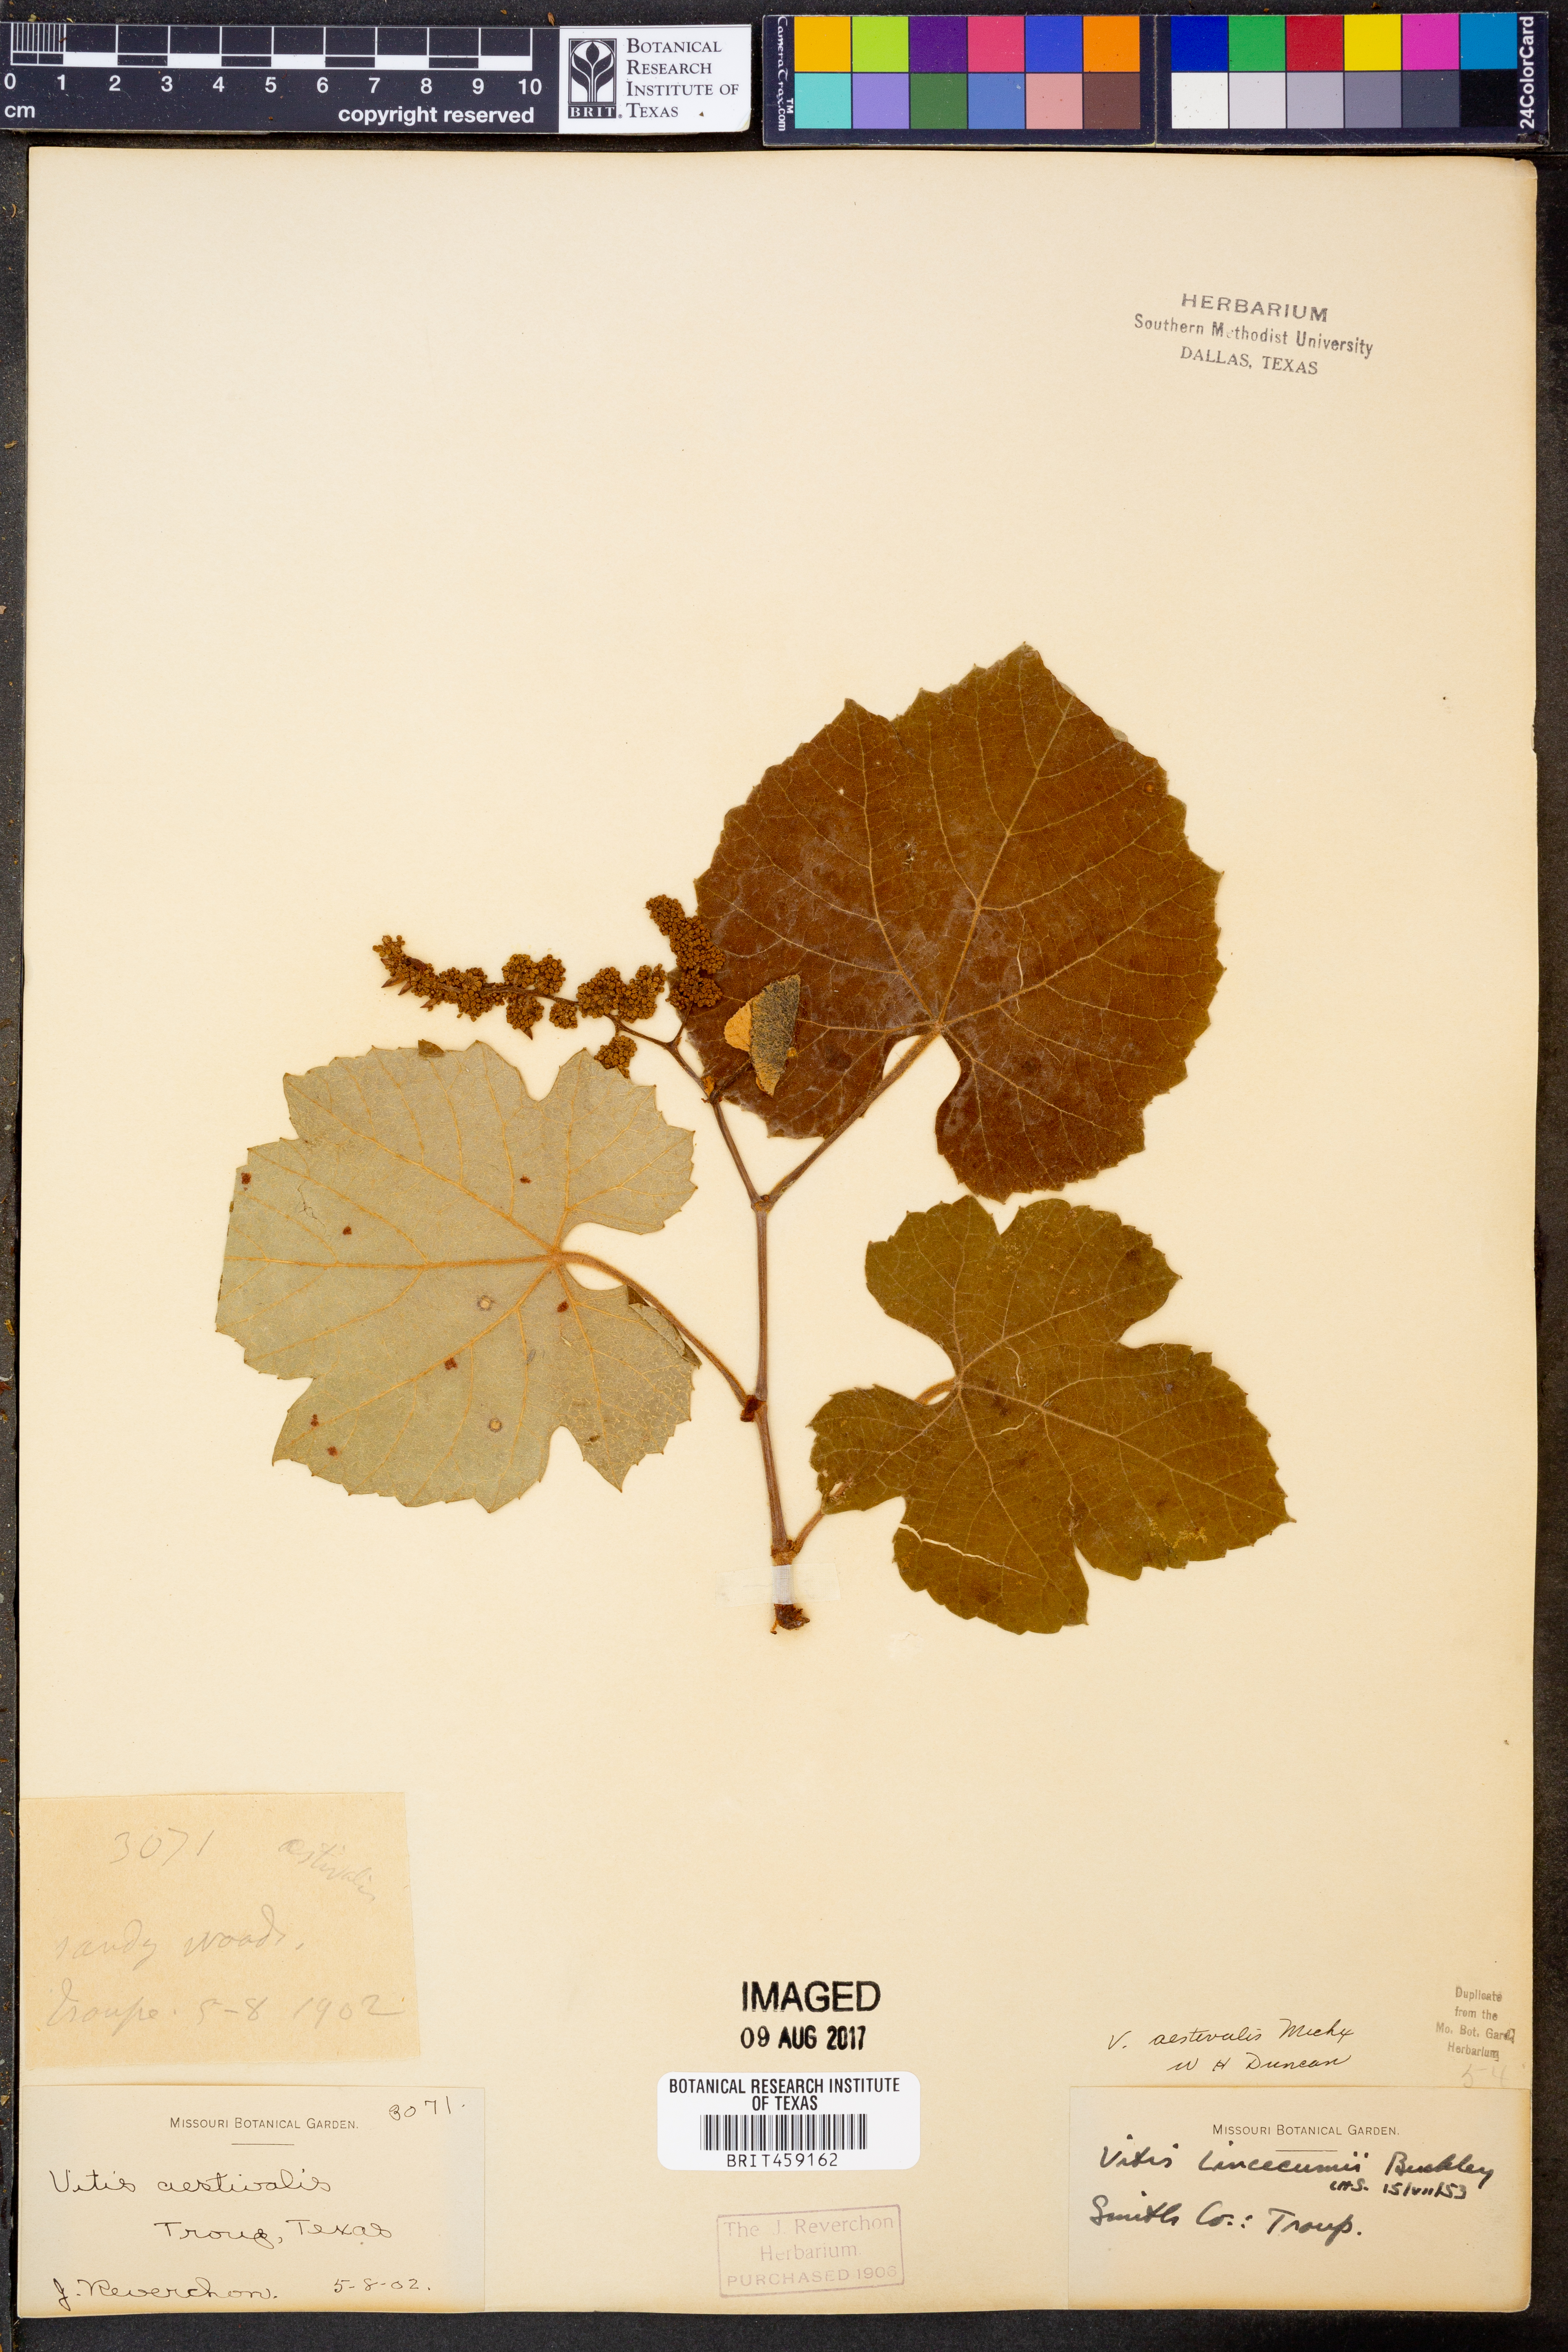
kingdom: Plantae
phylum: Tracheophyta
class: Magnoliopsida
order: Vitales
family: Vitaceae
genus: Vitis
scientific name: Vitis aestivalis
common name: Pigeon grape
